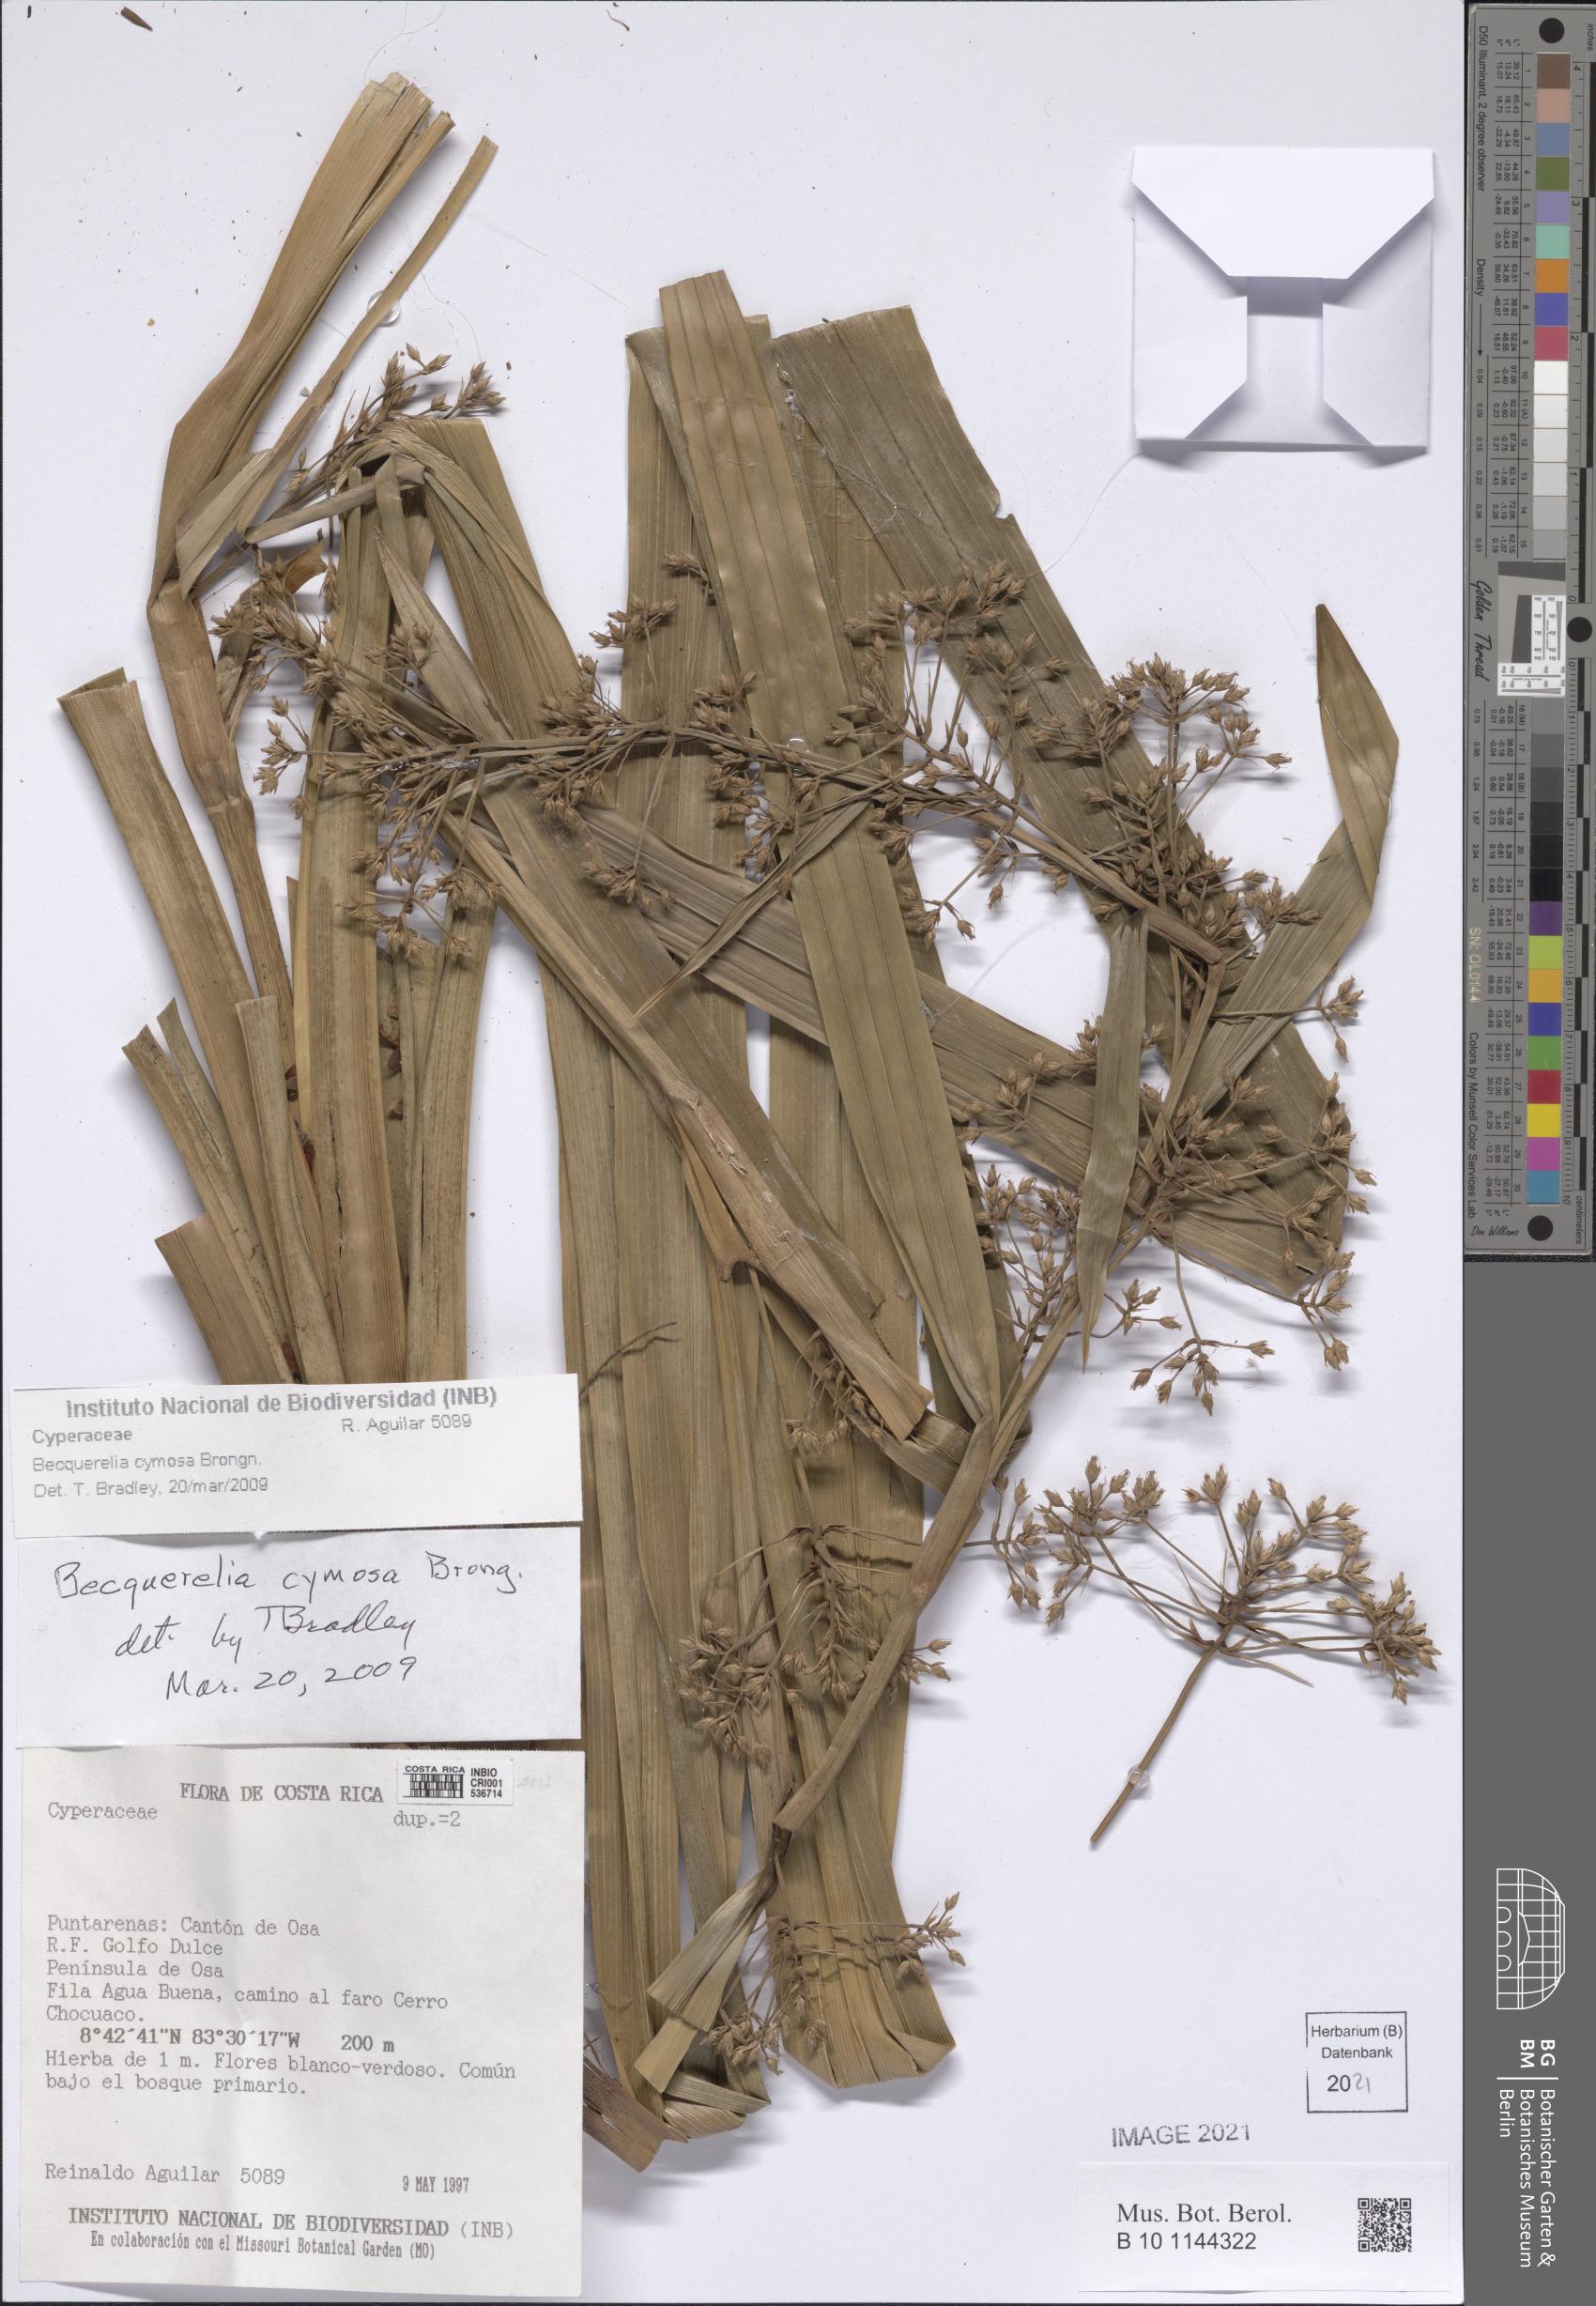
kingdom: Plantae
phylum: Tracheophyta
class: Liliopsida
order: Poales
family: Cyperaceae
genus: Becquerelia
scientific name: Becquerelia cymosa
